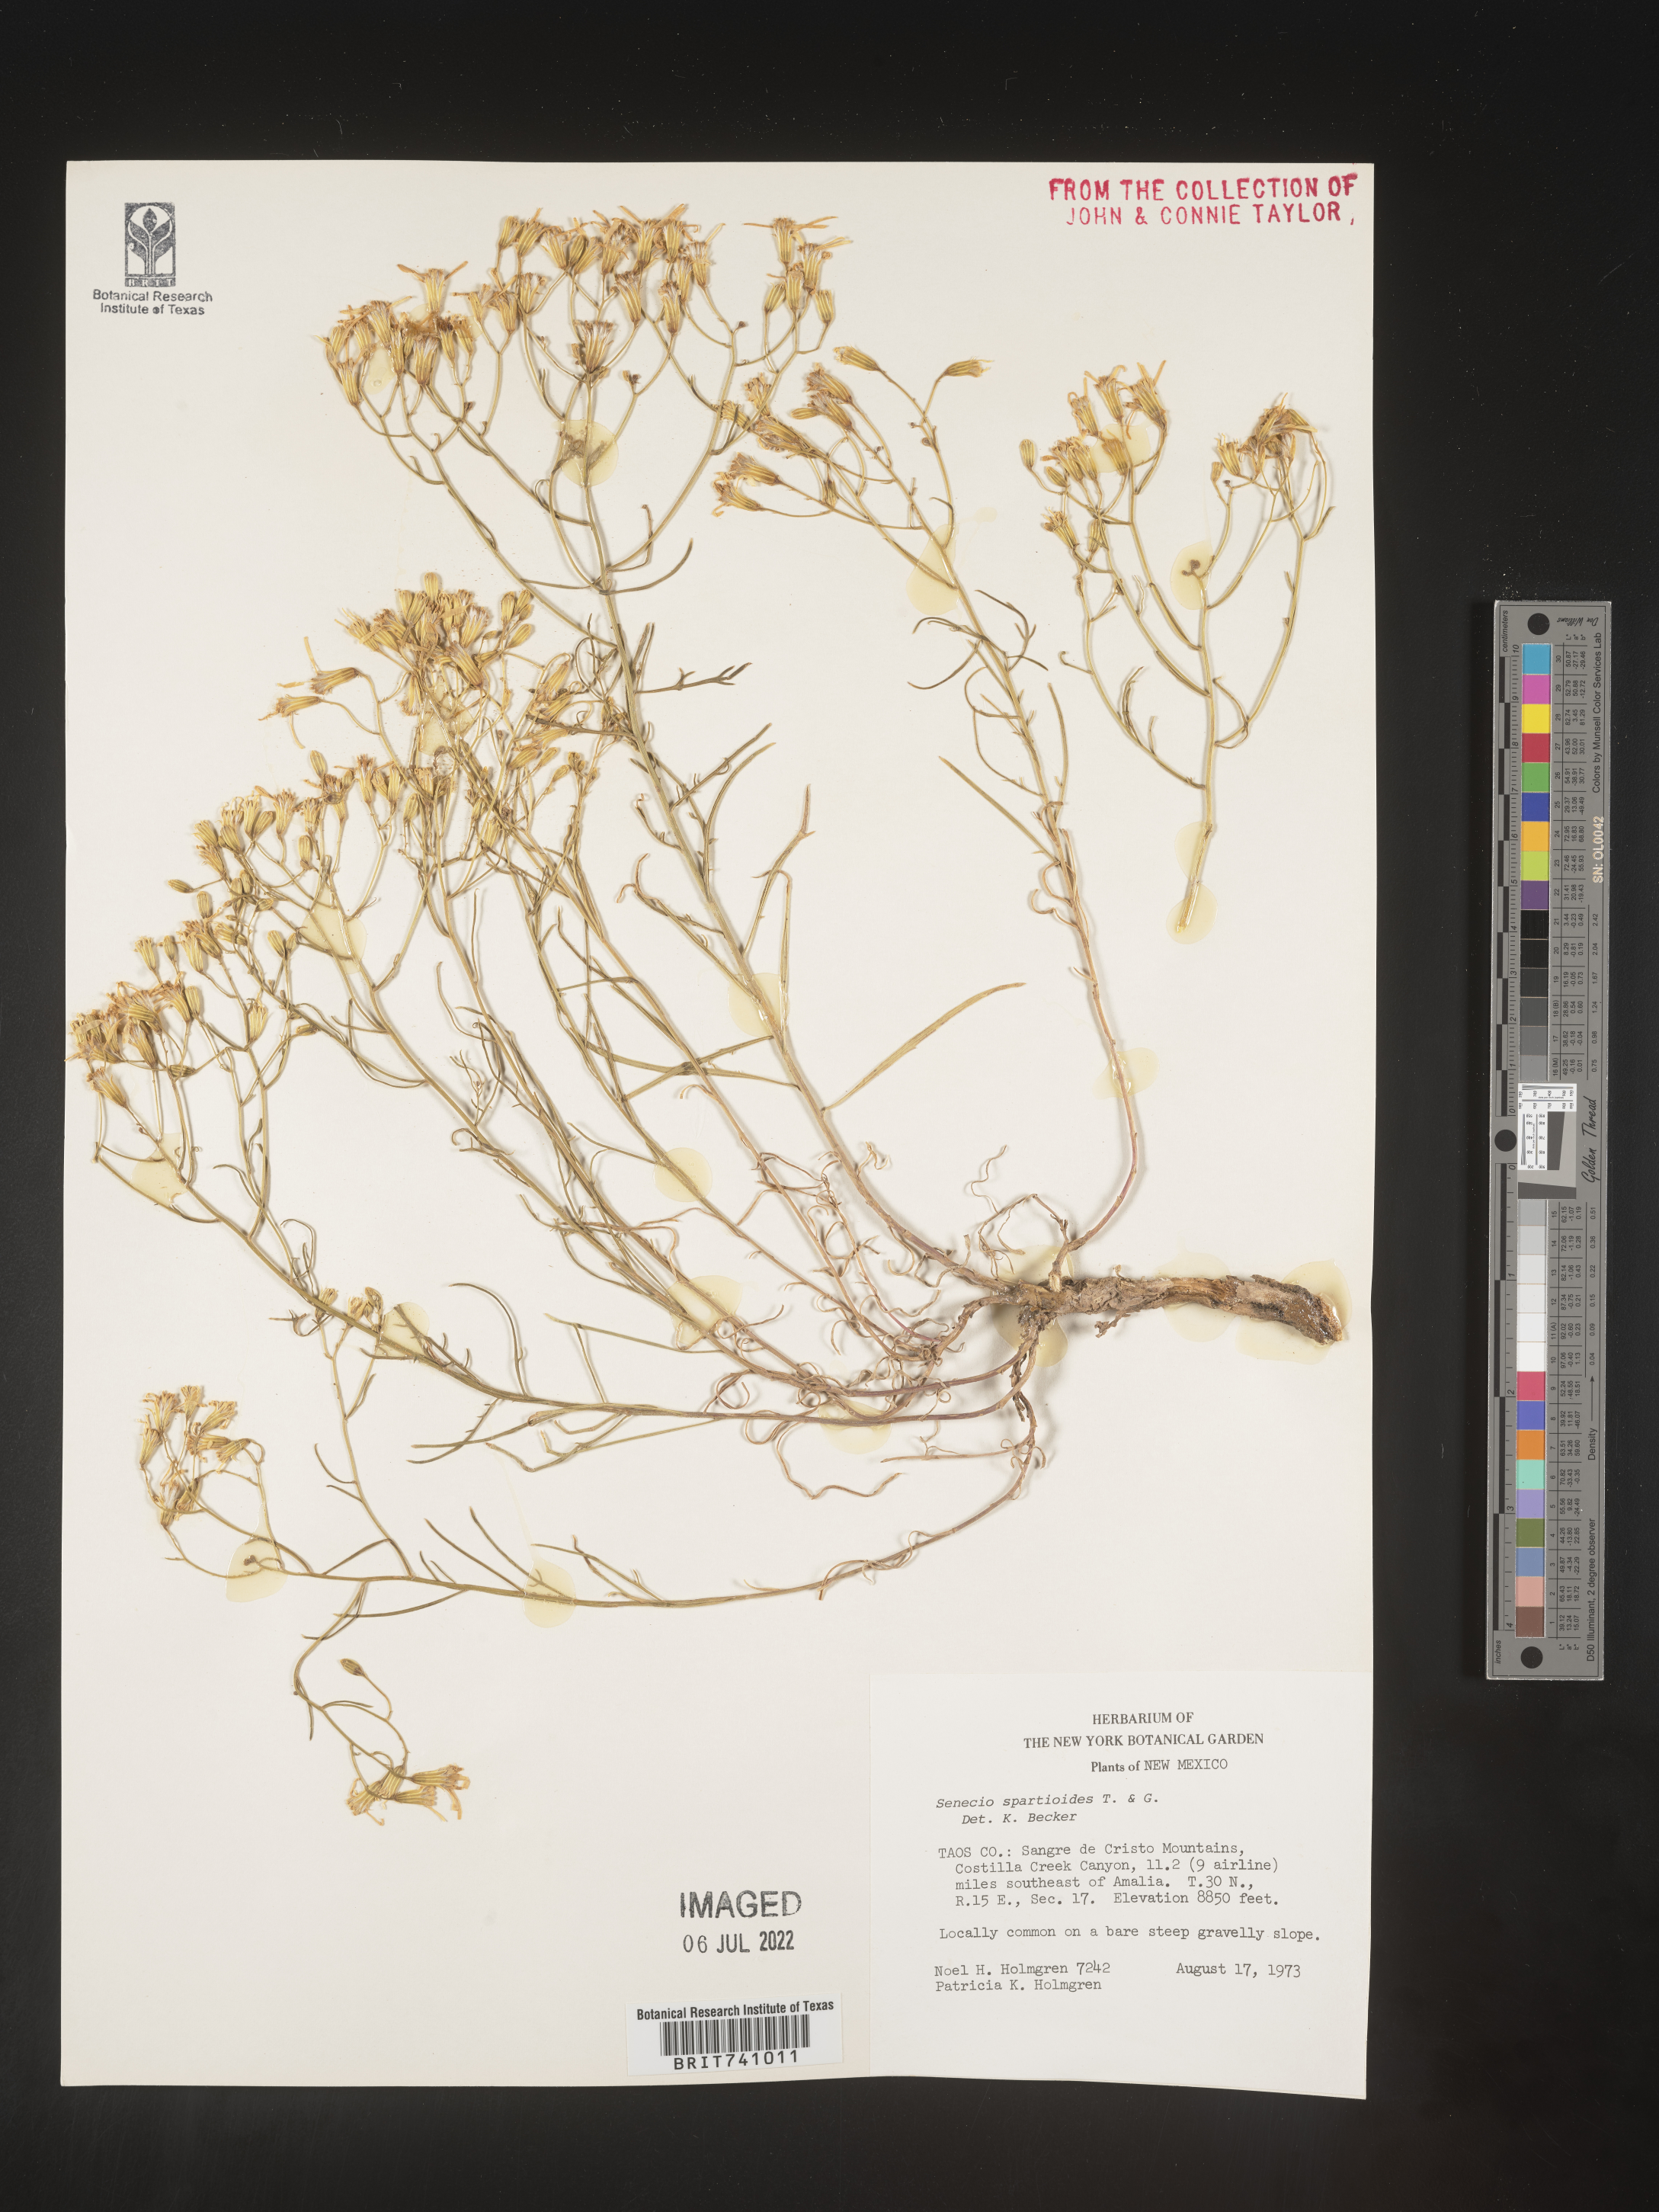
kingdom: Plantae
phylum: Tracheophyta
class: Magnoliopsida
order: Asterales
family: Asteraceae
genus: Senecio
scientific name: Senecio spartioides
